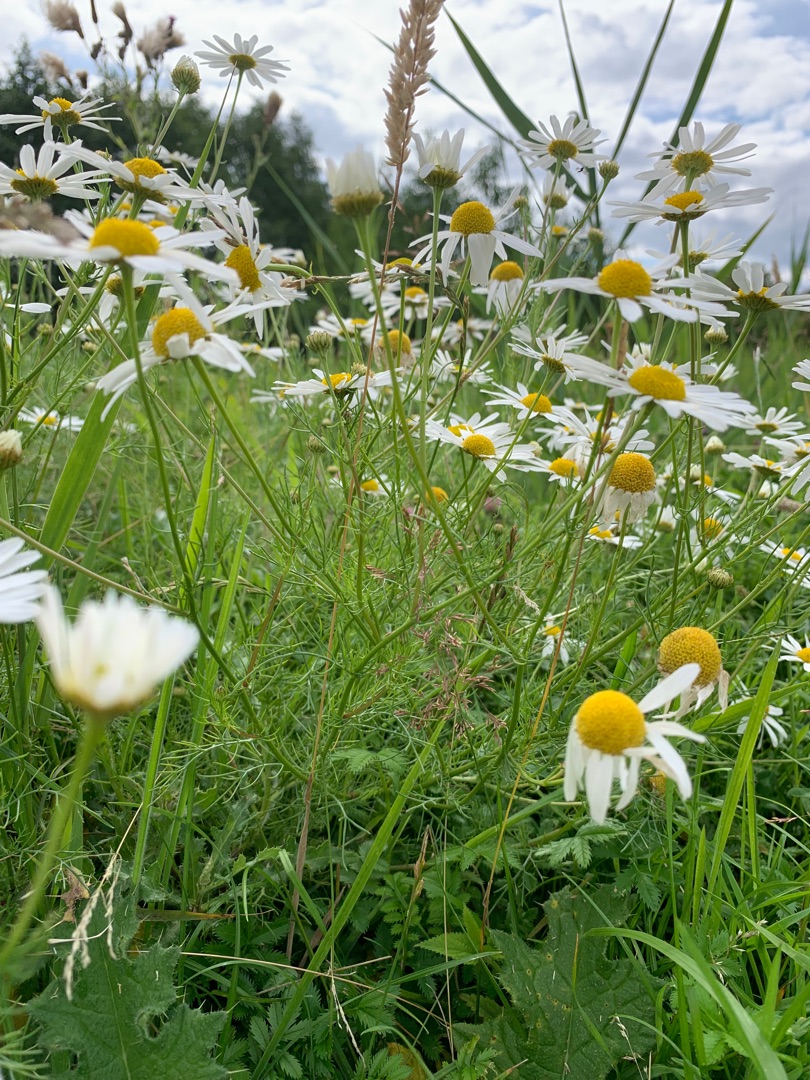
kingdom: Plantae
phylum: Tracheophyta
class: Magnoliopsida
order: Asterales
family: Asteraceae
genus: Tripleurospermum
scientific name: Tripleurospermum inodorum
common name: Lugtløs kamille
